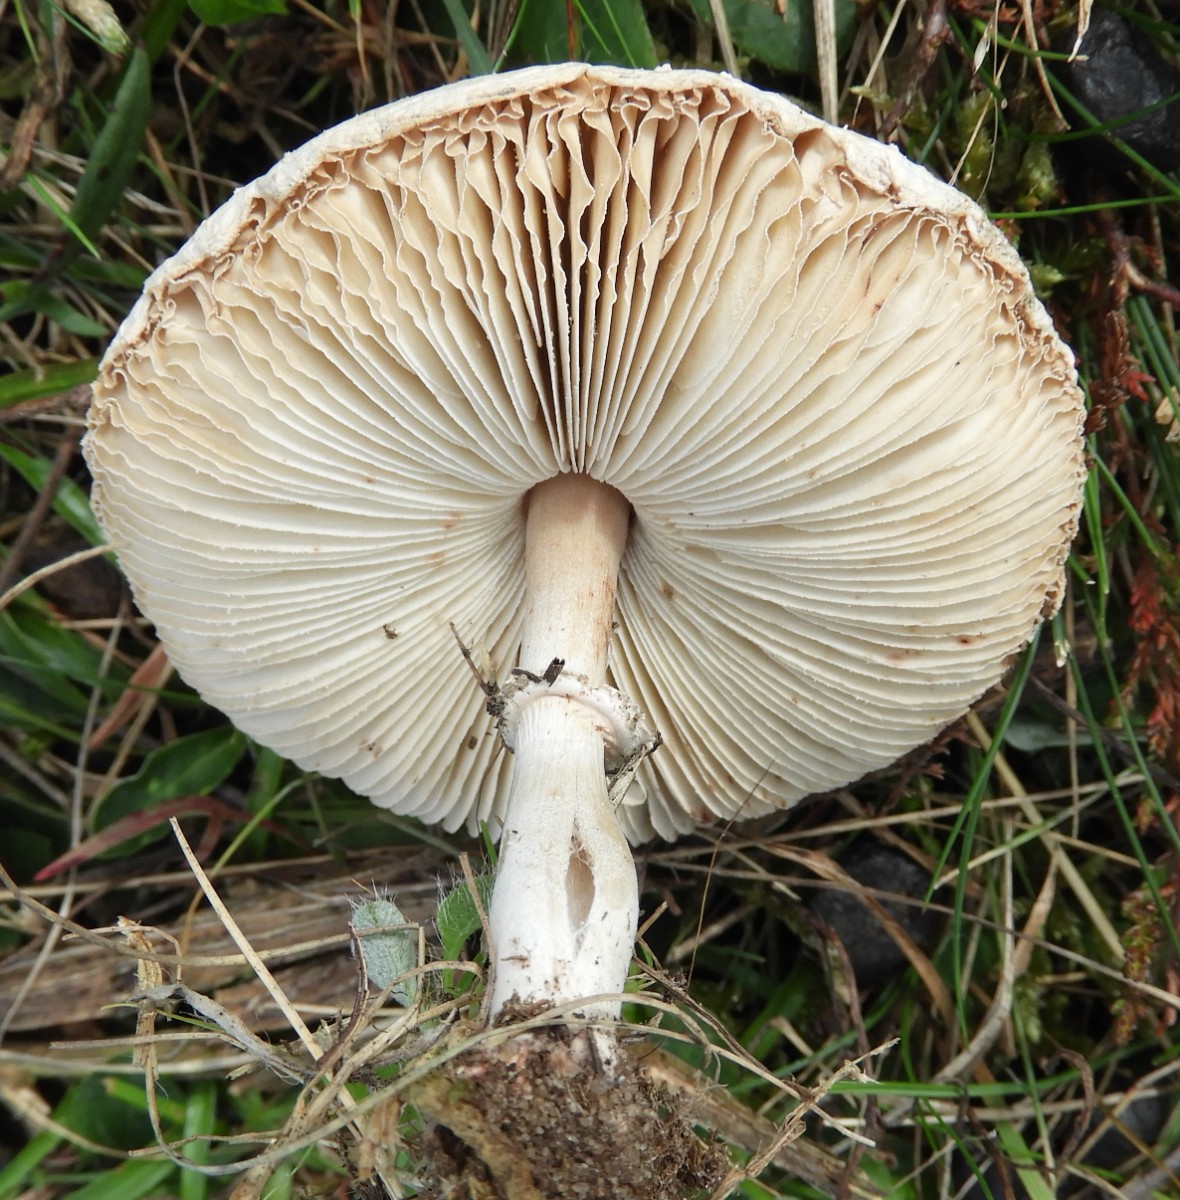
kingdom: Fungi
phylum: Basidiomycota
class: Agaricomycetes
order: Agaricales
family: Agaricaceae
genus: Macrolepiota
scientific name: Macrolepiota excoriata
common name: mark-kæmpeparasolhat
